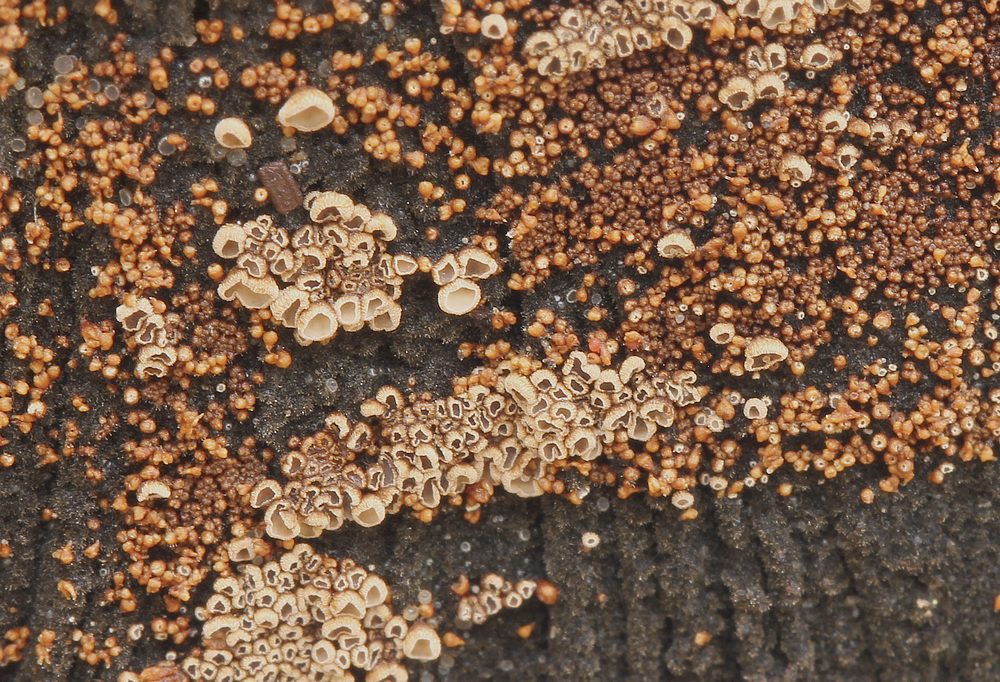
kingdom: Fungi
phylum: Basidiomycota
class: Agaricomycetes
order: Agaricales
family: Niaceae
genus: Merismodes
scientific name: Merismodes anomala
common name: almindelig læderskål
